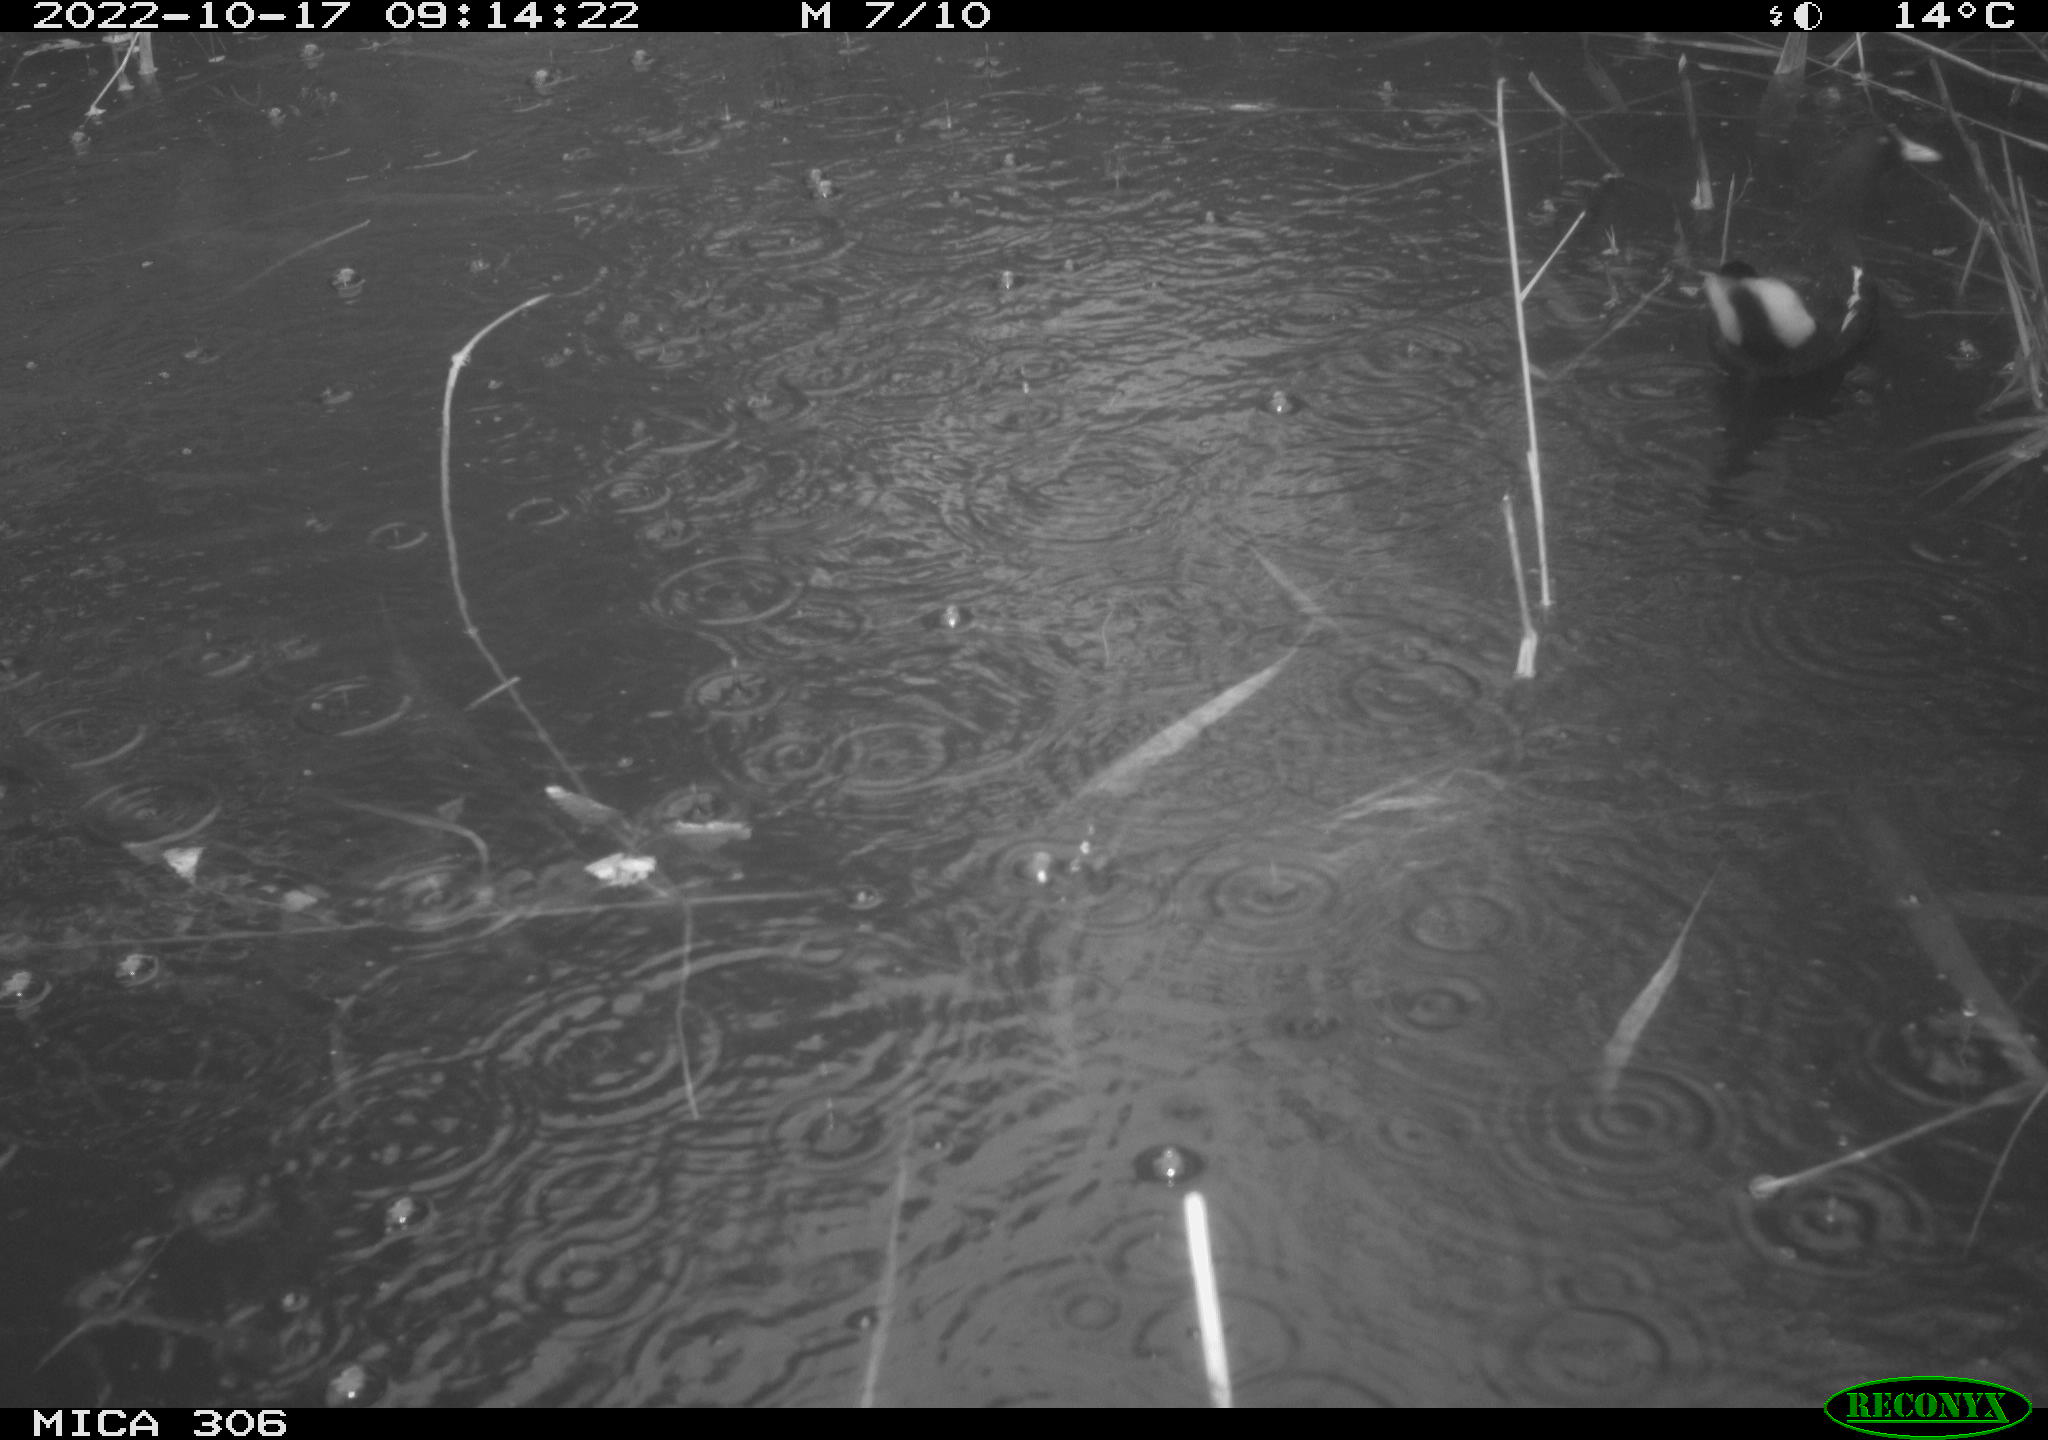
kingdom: Animalia
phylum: Chordata
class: Aves
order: Gruiformes
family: Rallidae
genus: Gallinula
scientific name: Gallinula chloropus
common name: Common moorhen
